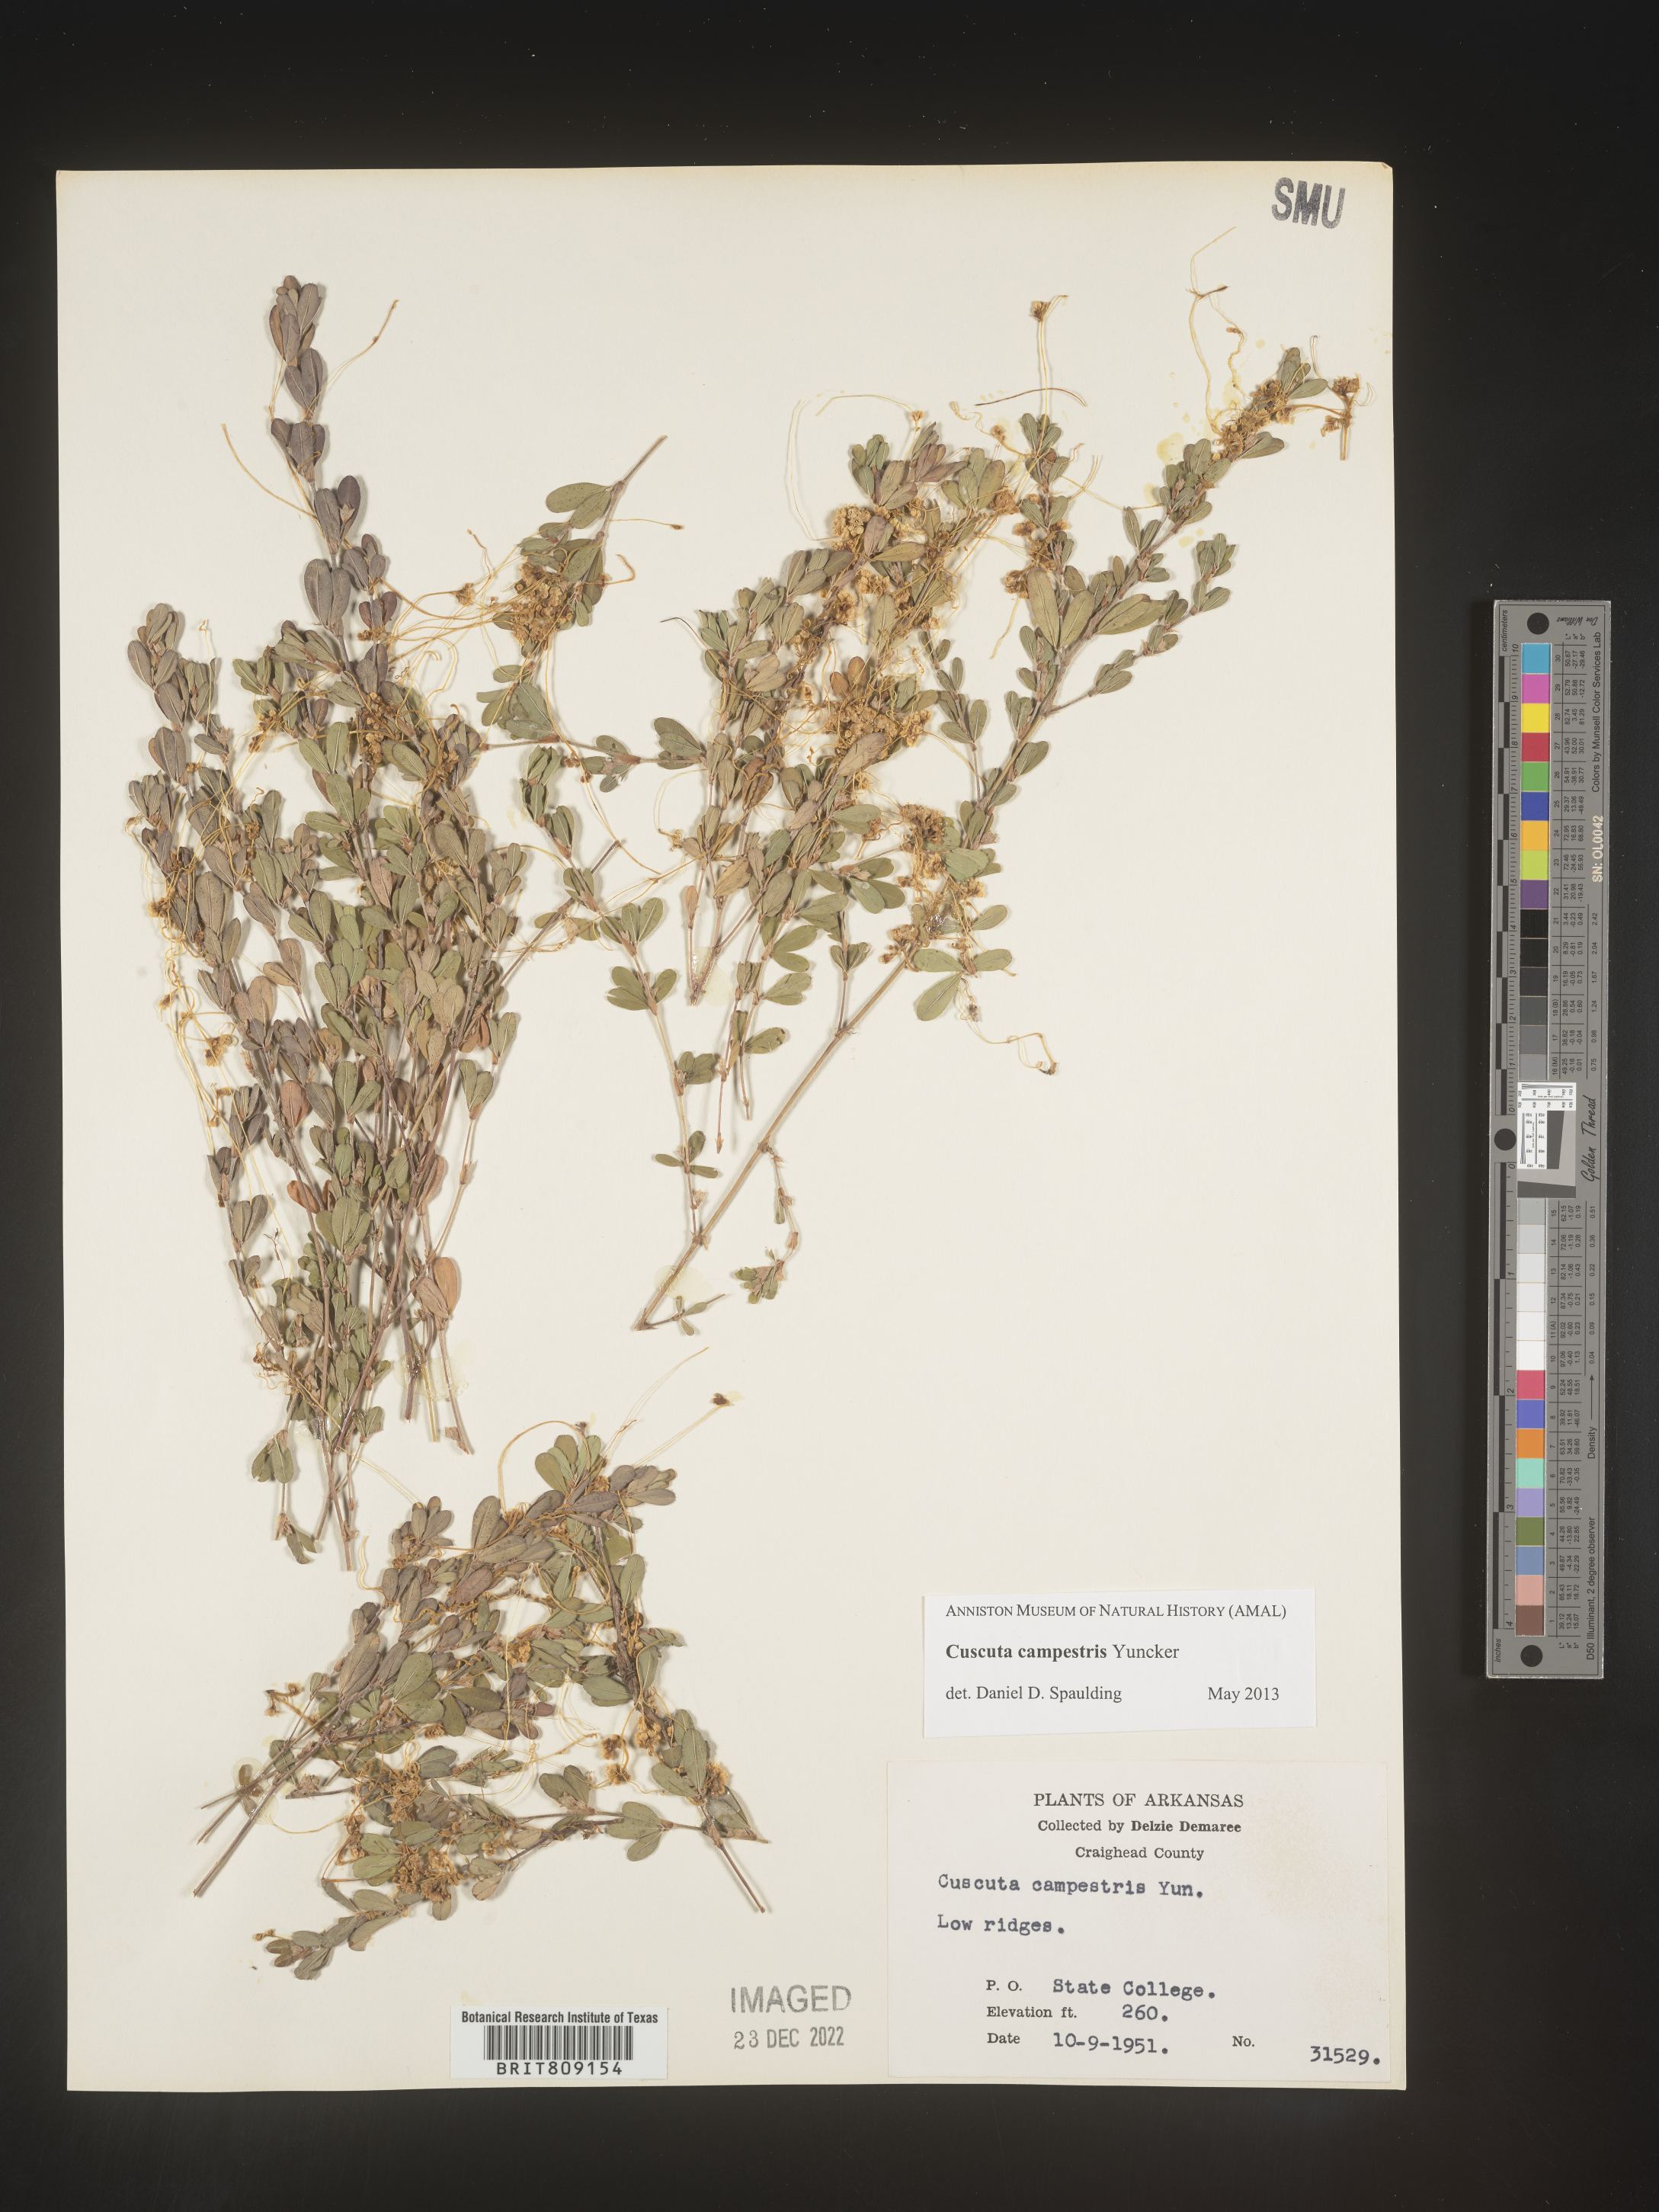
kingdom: Plantae
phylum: Tracheophyta
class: Magnoliopsida
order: Solanales
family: Convolvulaceae
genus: Cuscuta
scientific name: Cuscuta campestris
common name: Yellow dodder
